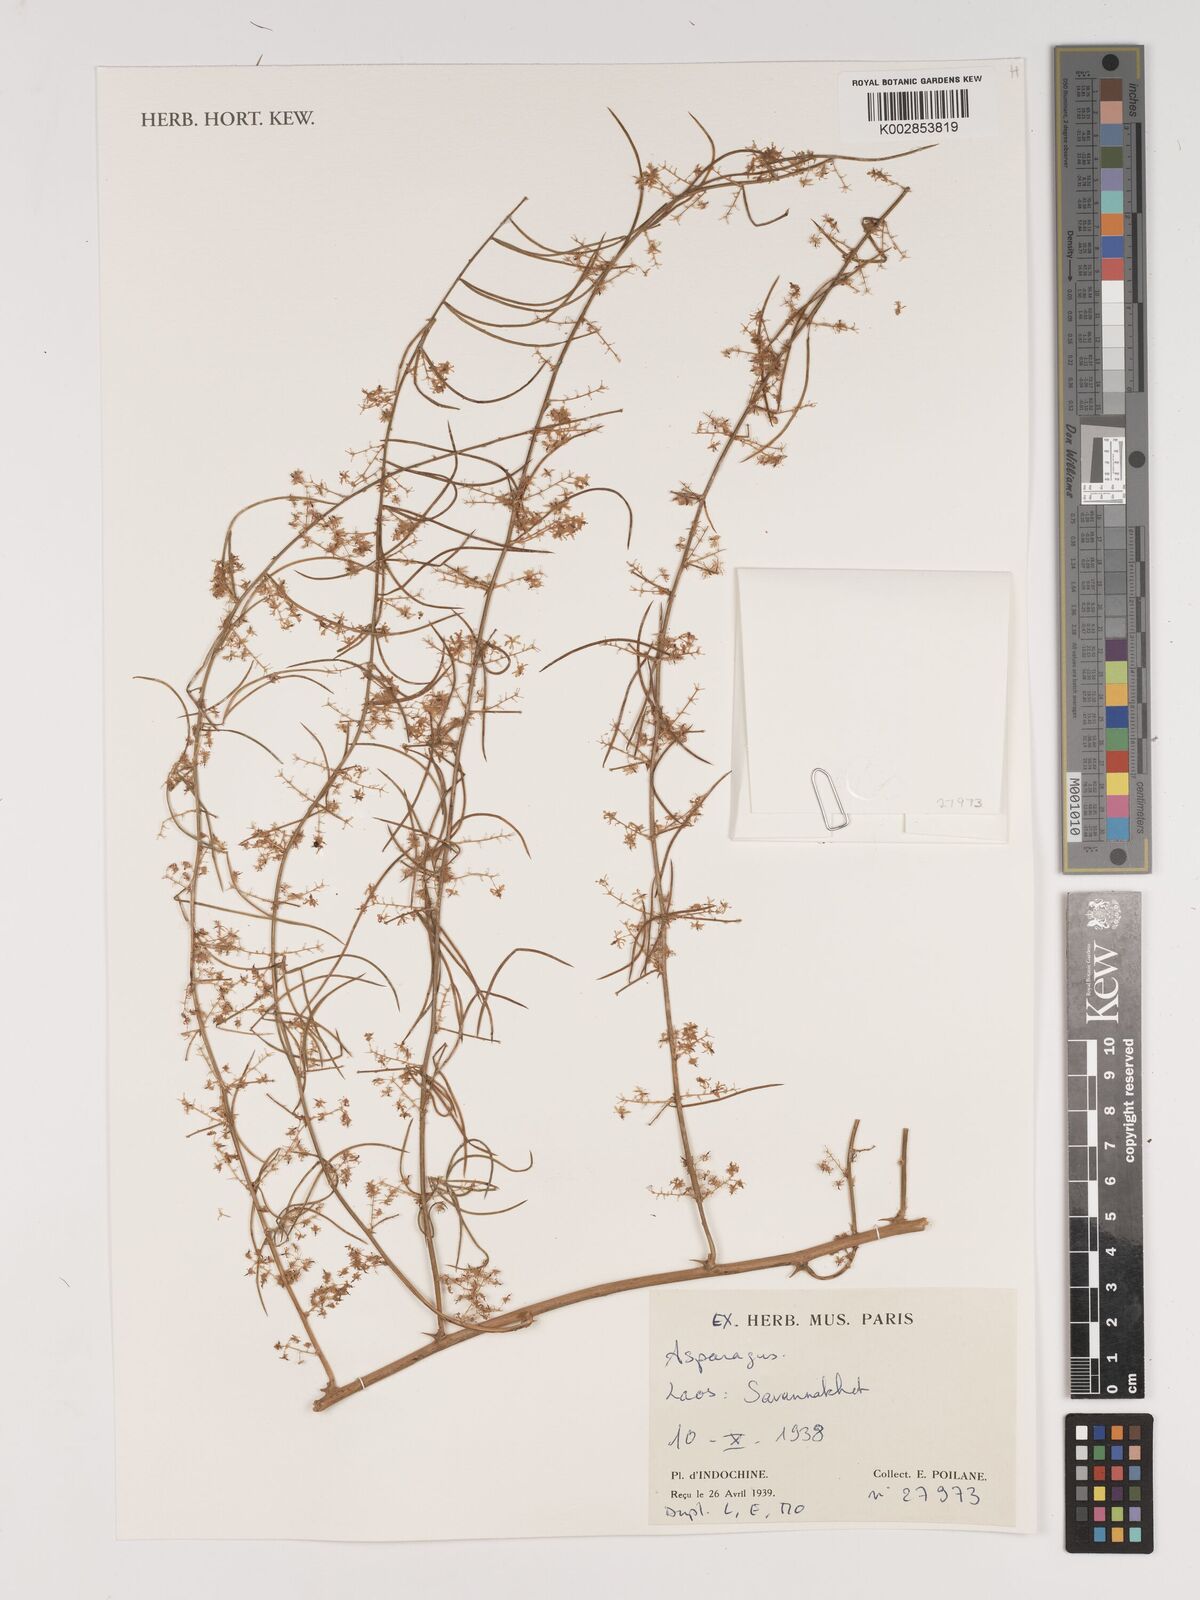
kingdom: Plantae
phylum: Tracheophyta
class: Liliopsida
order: Asparagales
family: Asparagaceae
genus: Asparagus
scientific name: Asparagus
